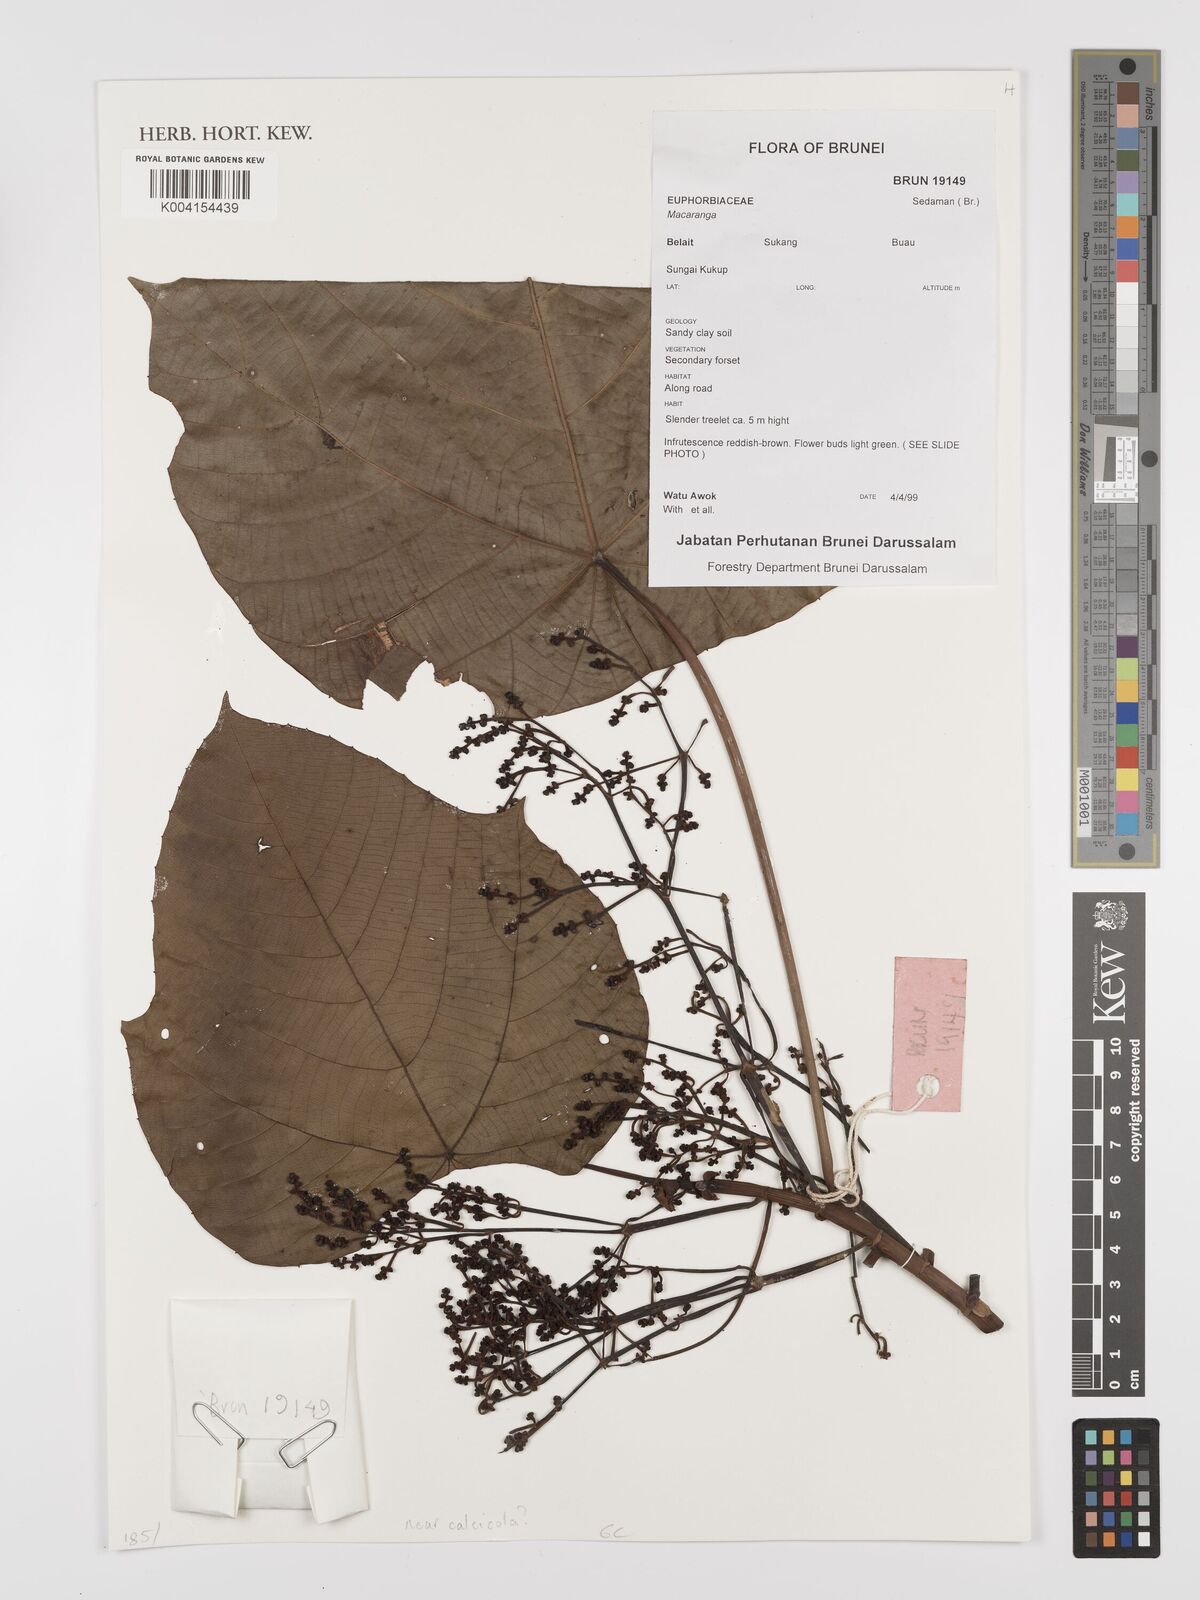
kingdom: Plantae
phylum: Tracheophyta
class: Magnoliopsida
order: Malpighiales
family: Euphorbiaceae
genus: Macaranga
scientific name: Macaranga
